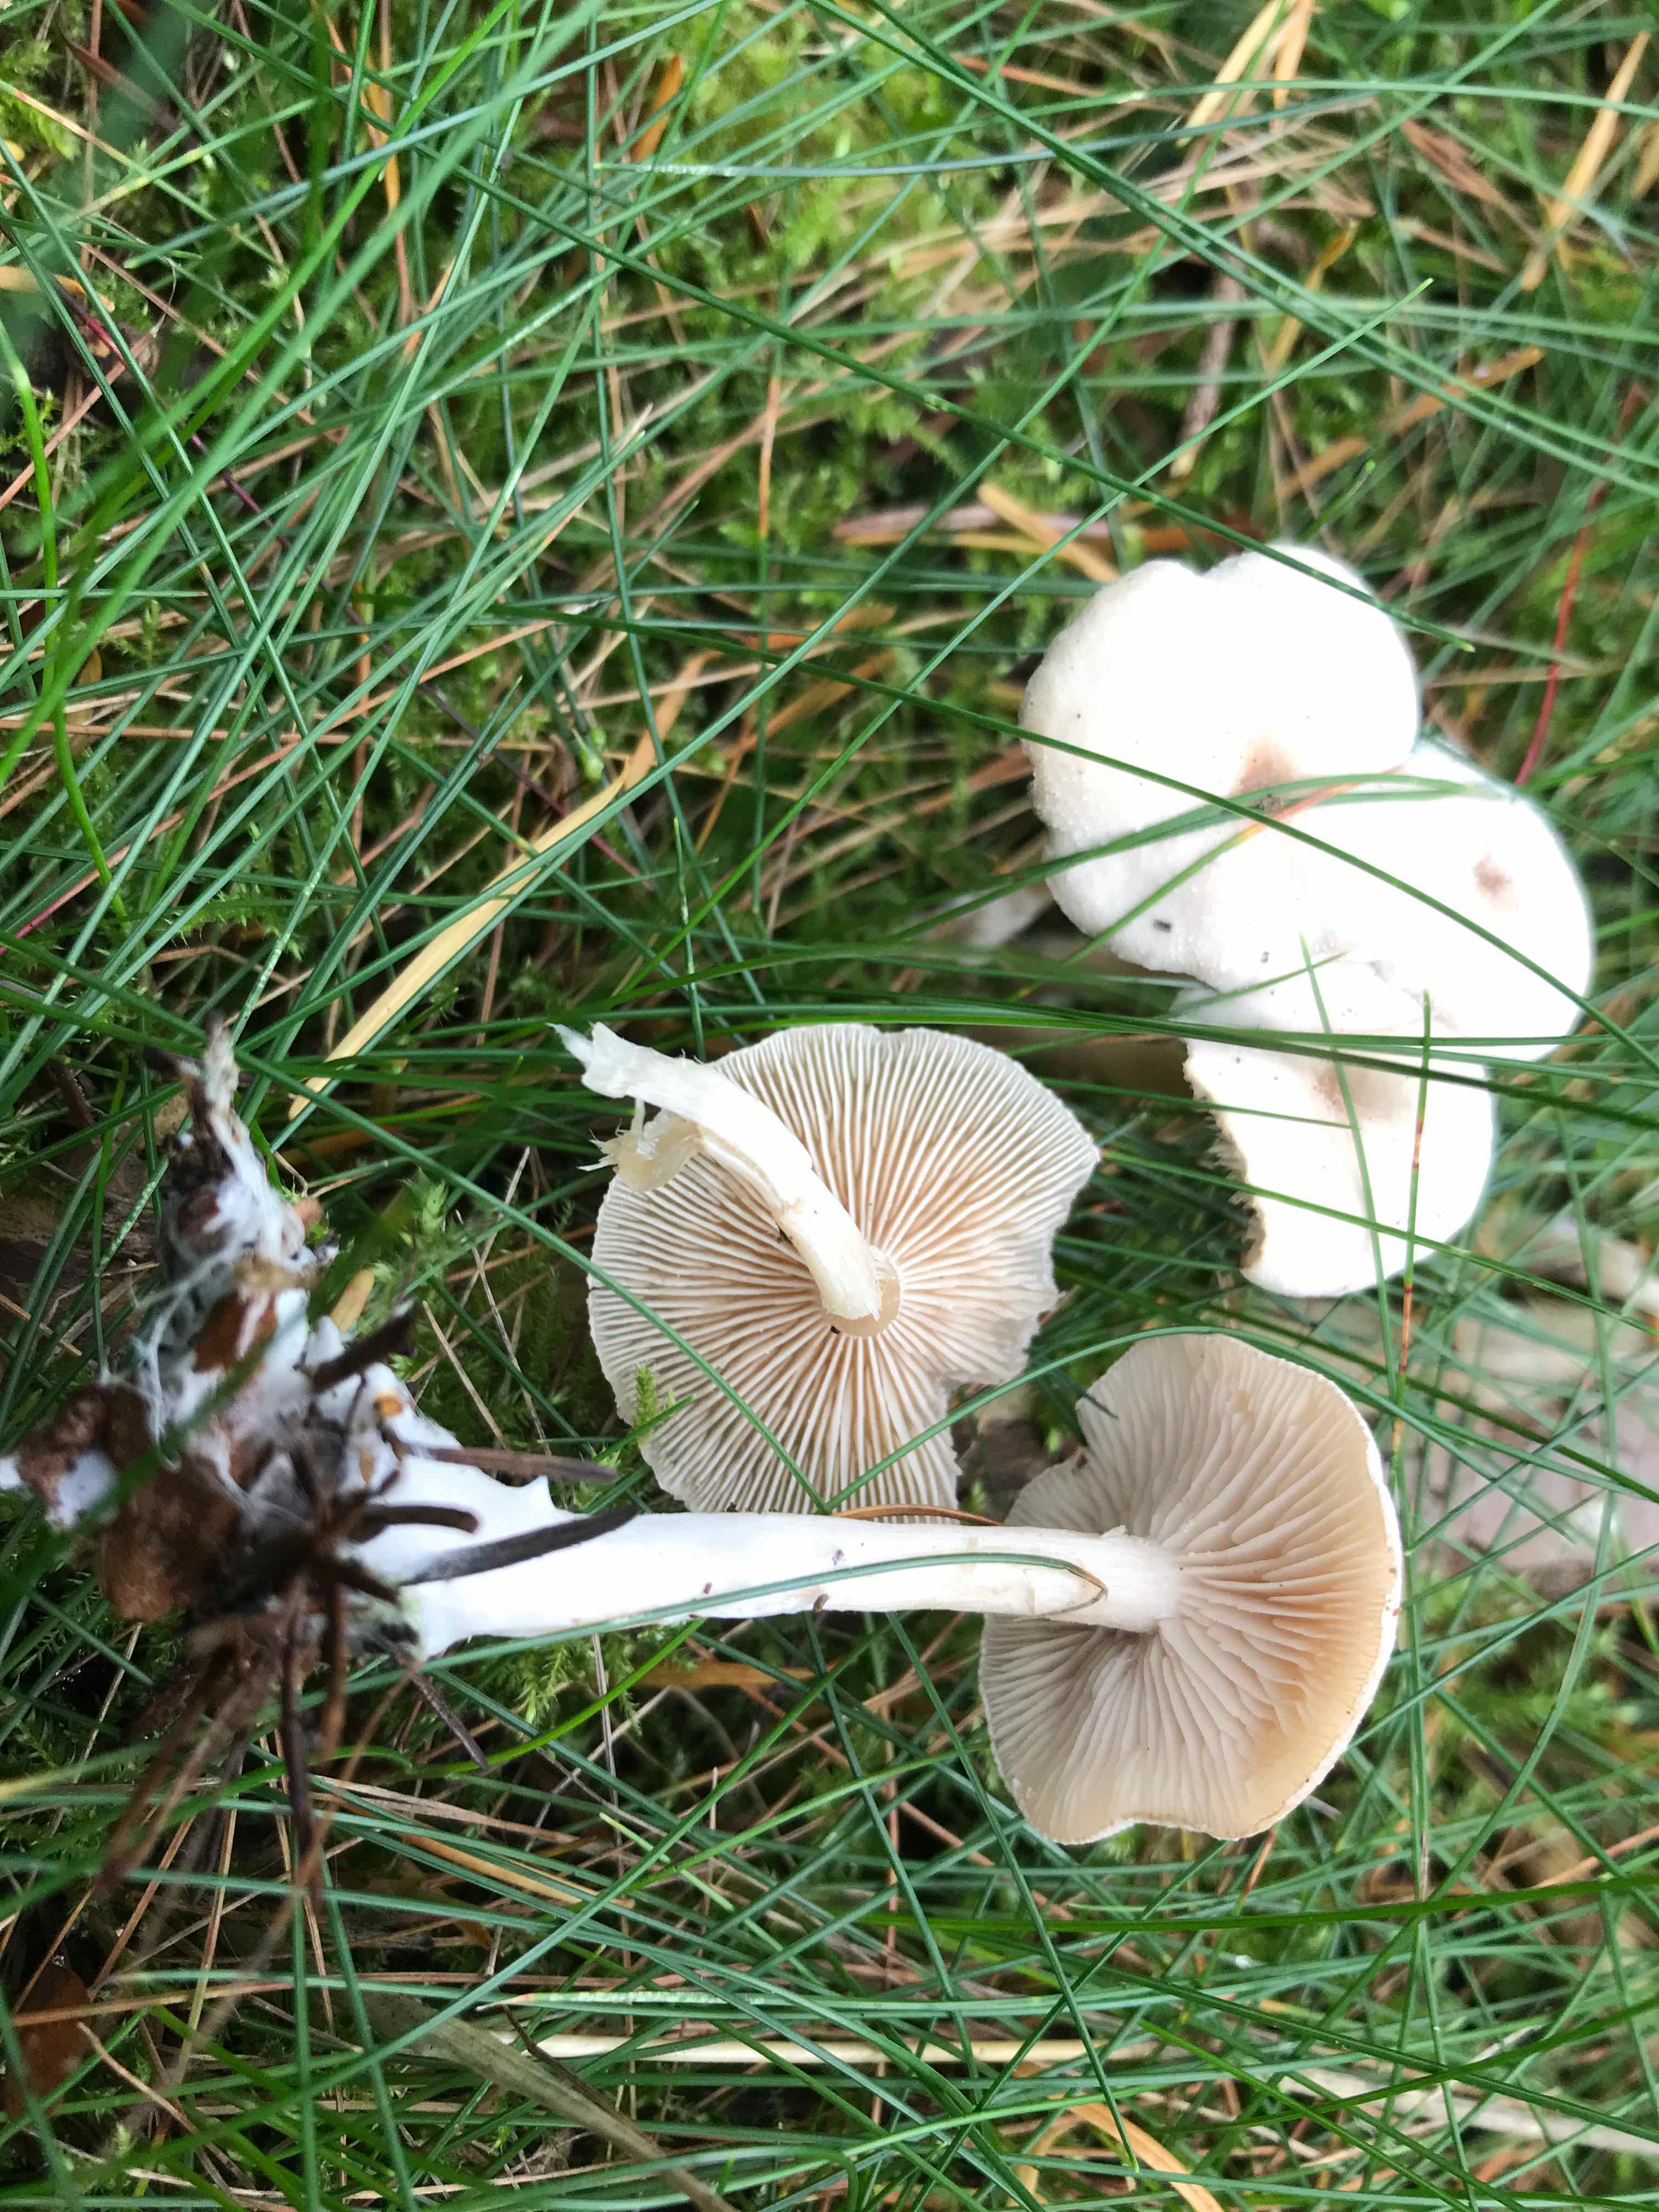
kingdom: Fungi
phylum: Basidiomycota
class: Agaricomycetes
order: Agaricales
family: Tricholomataceae
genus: Clitocybe
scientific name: Clitocybe fragrans
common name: vellugtende tragthat
